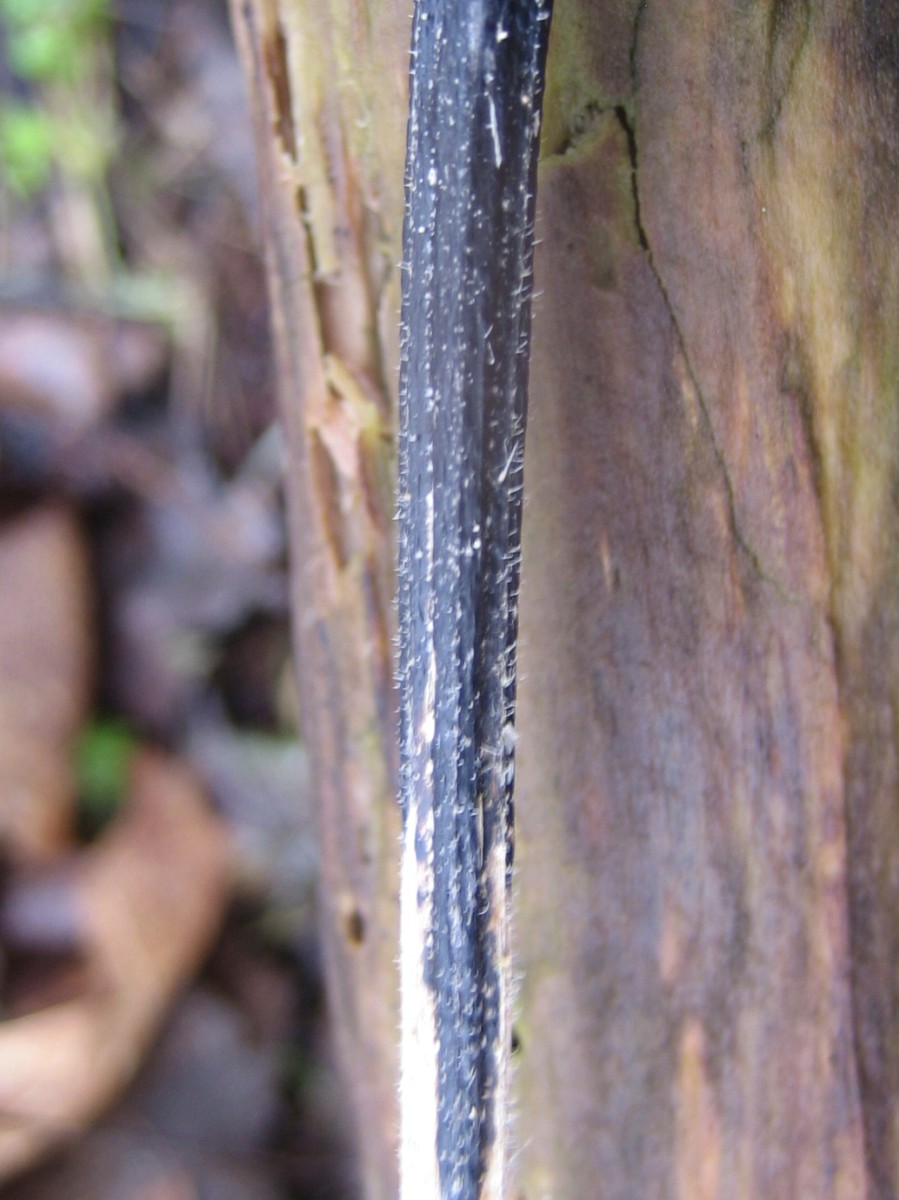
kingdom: Fungi
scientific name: Fungi
